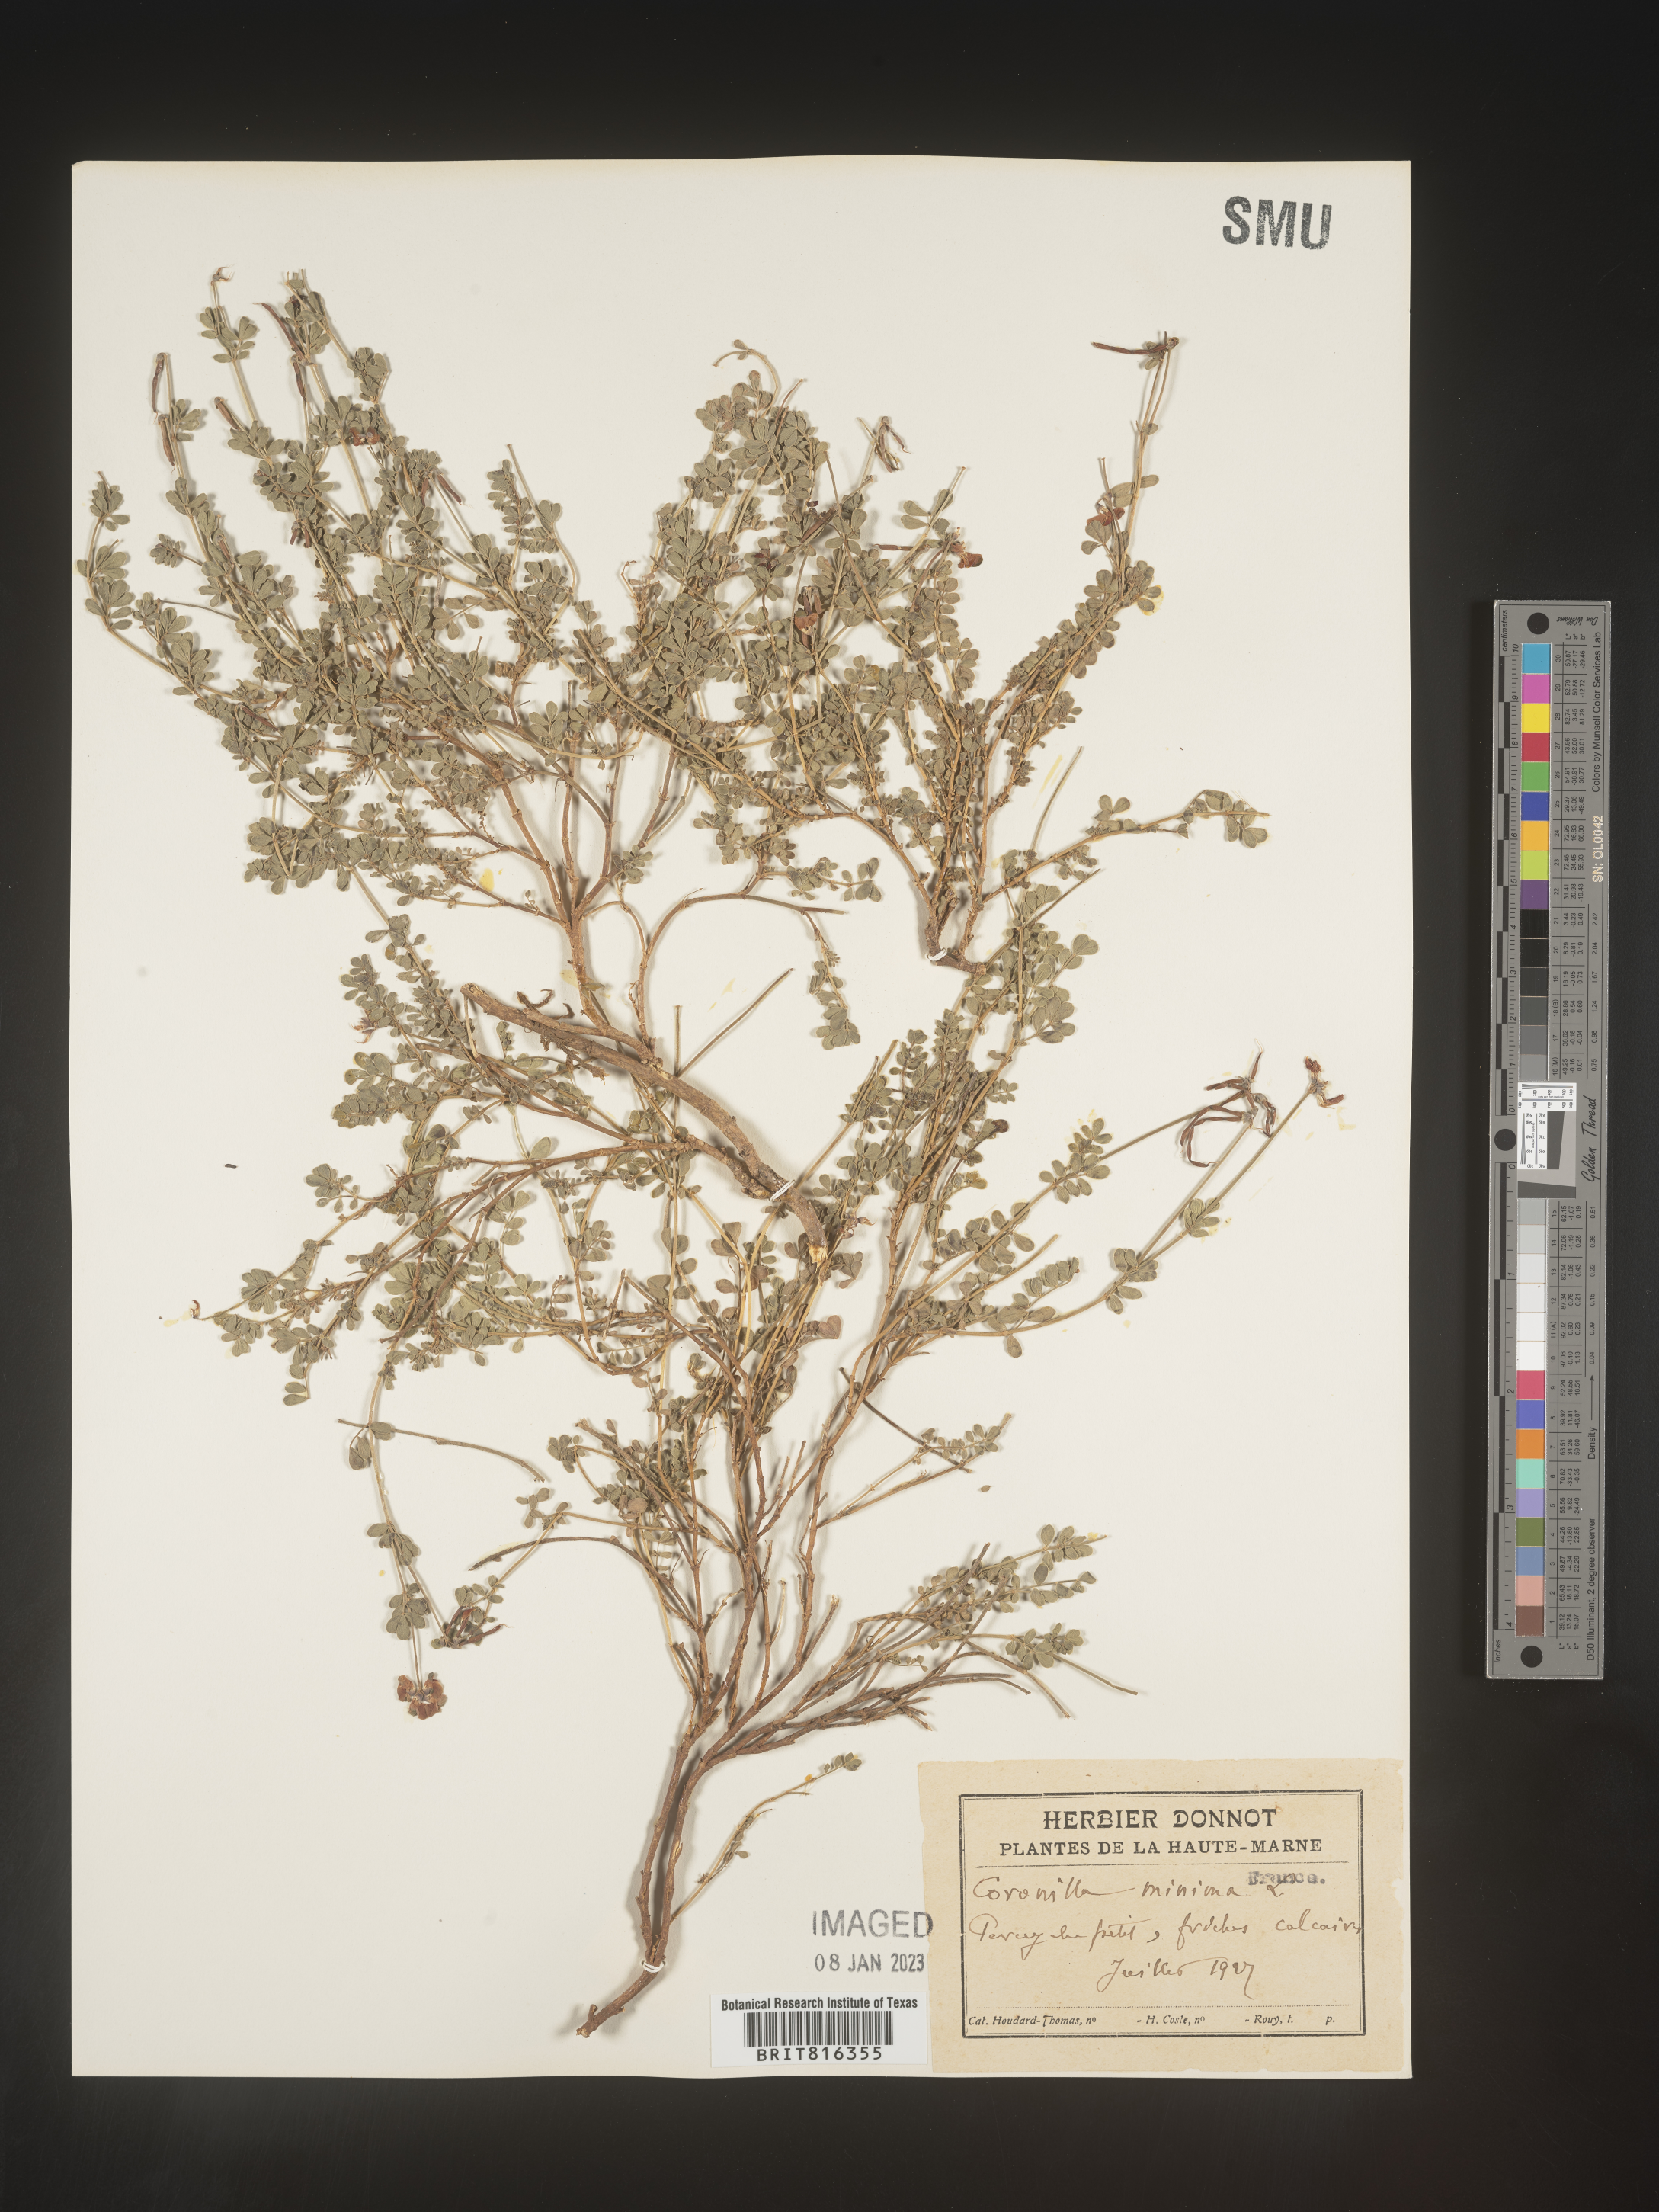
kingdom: Plantae
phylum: Tracheophyta
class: Magnoliopsida
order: Fabales
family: Fabaceae
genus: Coronilla
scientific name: Coronilla
